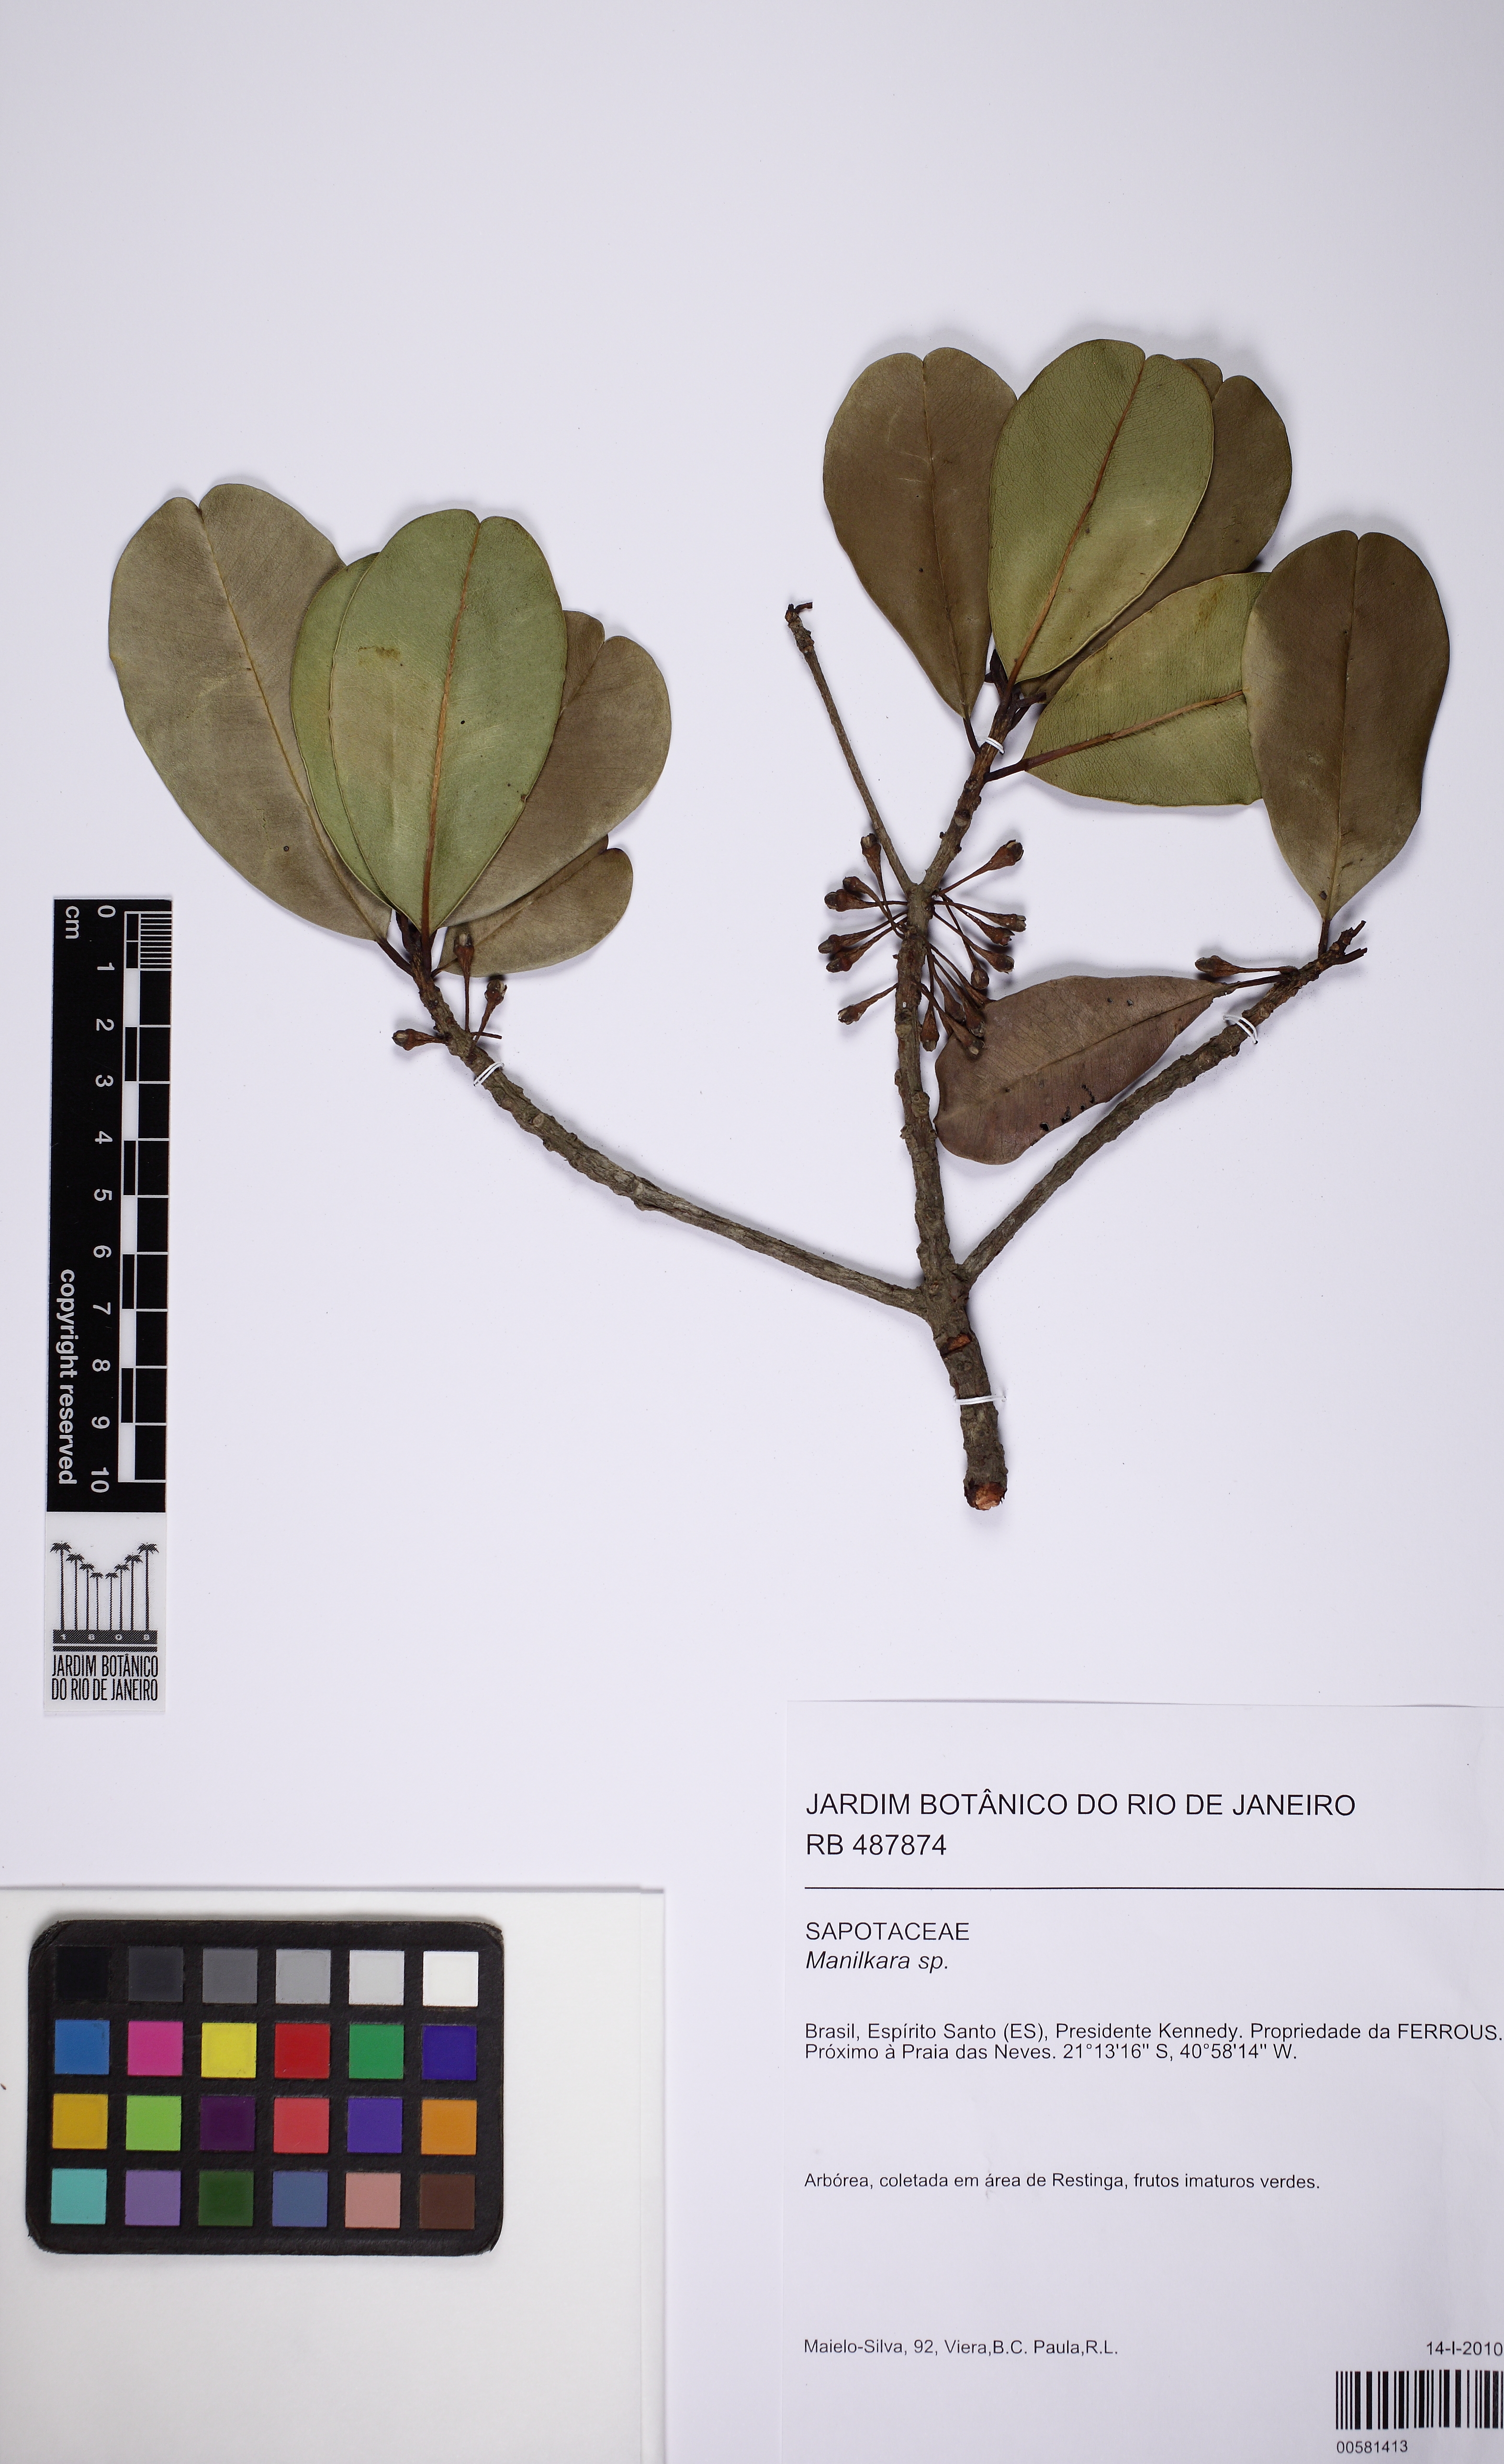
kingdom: Plantae
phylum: Tracheophyta
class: Magnoliopsida
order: Ericales
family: Sapotaceae
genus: Manilkara
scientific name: Manilkara
